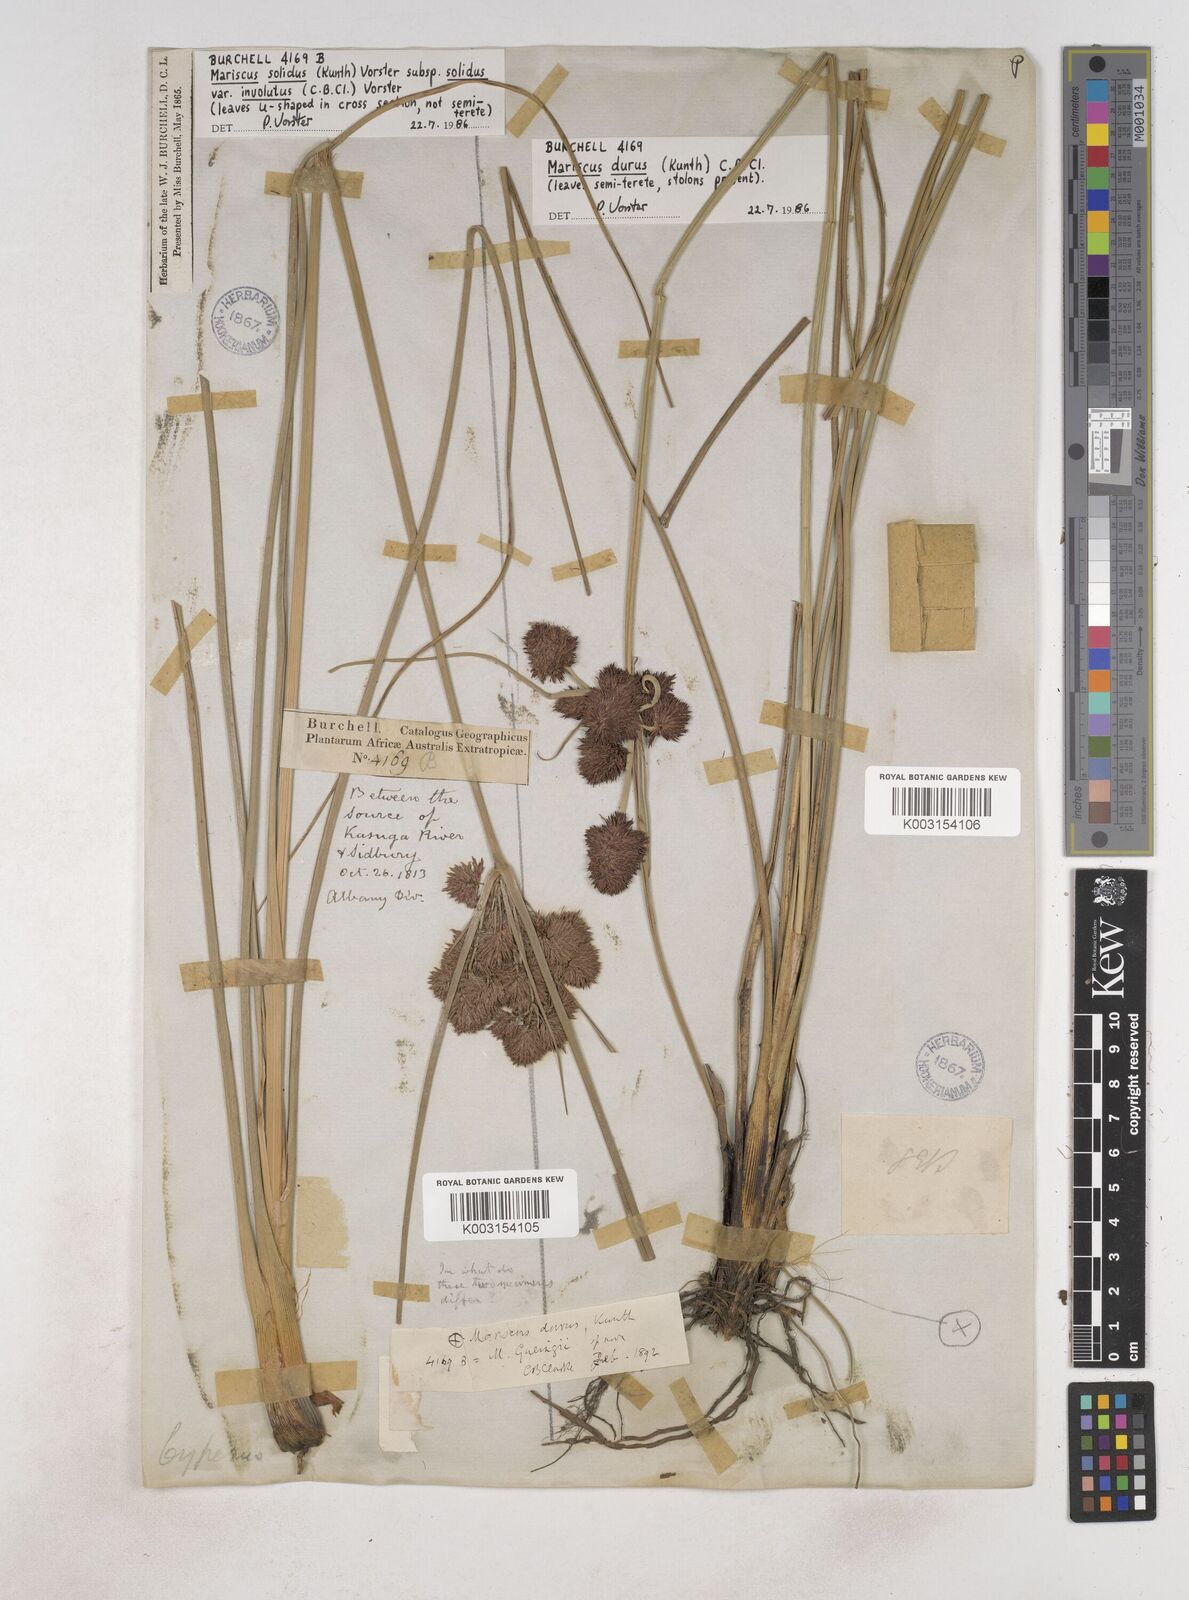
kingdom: Plantae
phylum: Tracheophyta
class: Liliopsida
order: Poales
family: Cyperaceae
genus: Cyperus
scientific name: Cyperus durus
